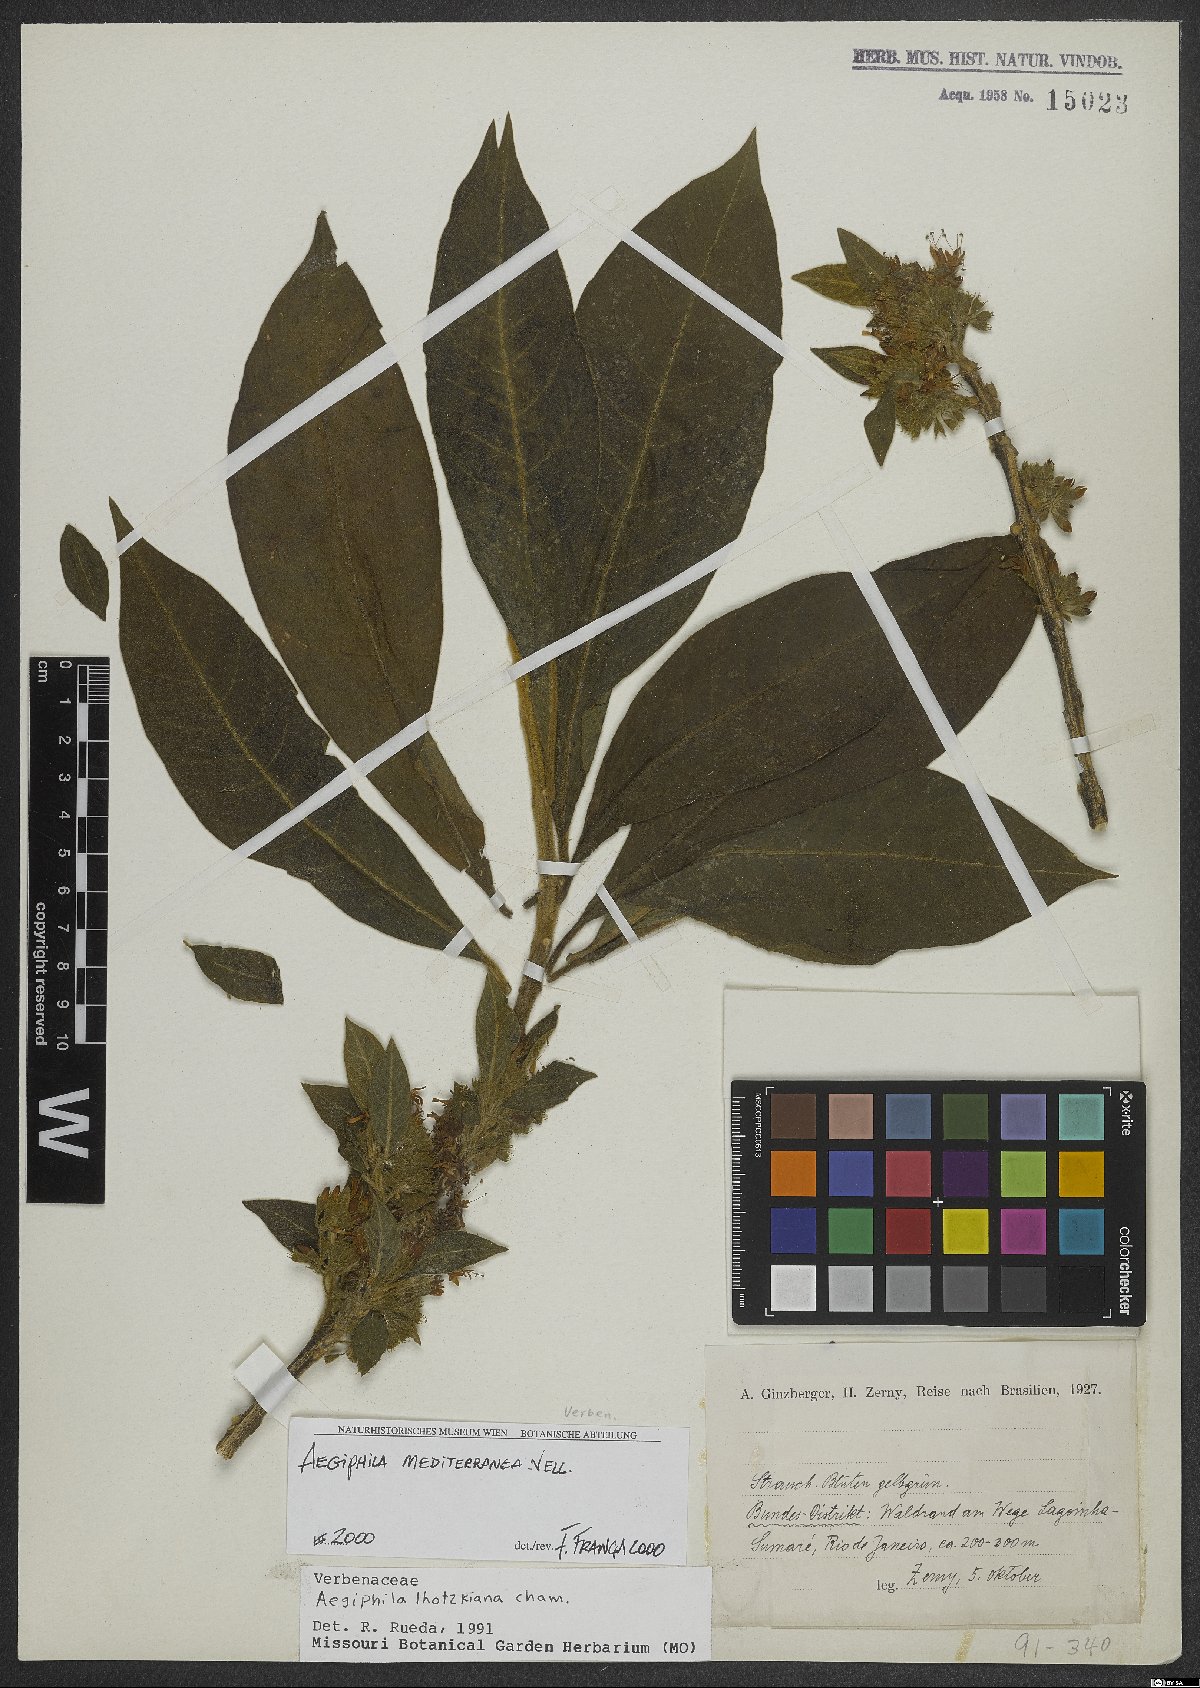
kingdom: Plantae
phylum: Tracheophyta
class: Magnoliopsida
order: Lamiales
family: Lamiaceae
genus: Aegiphila
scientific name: Aegiphila mediterranea
